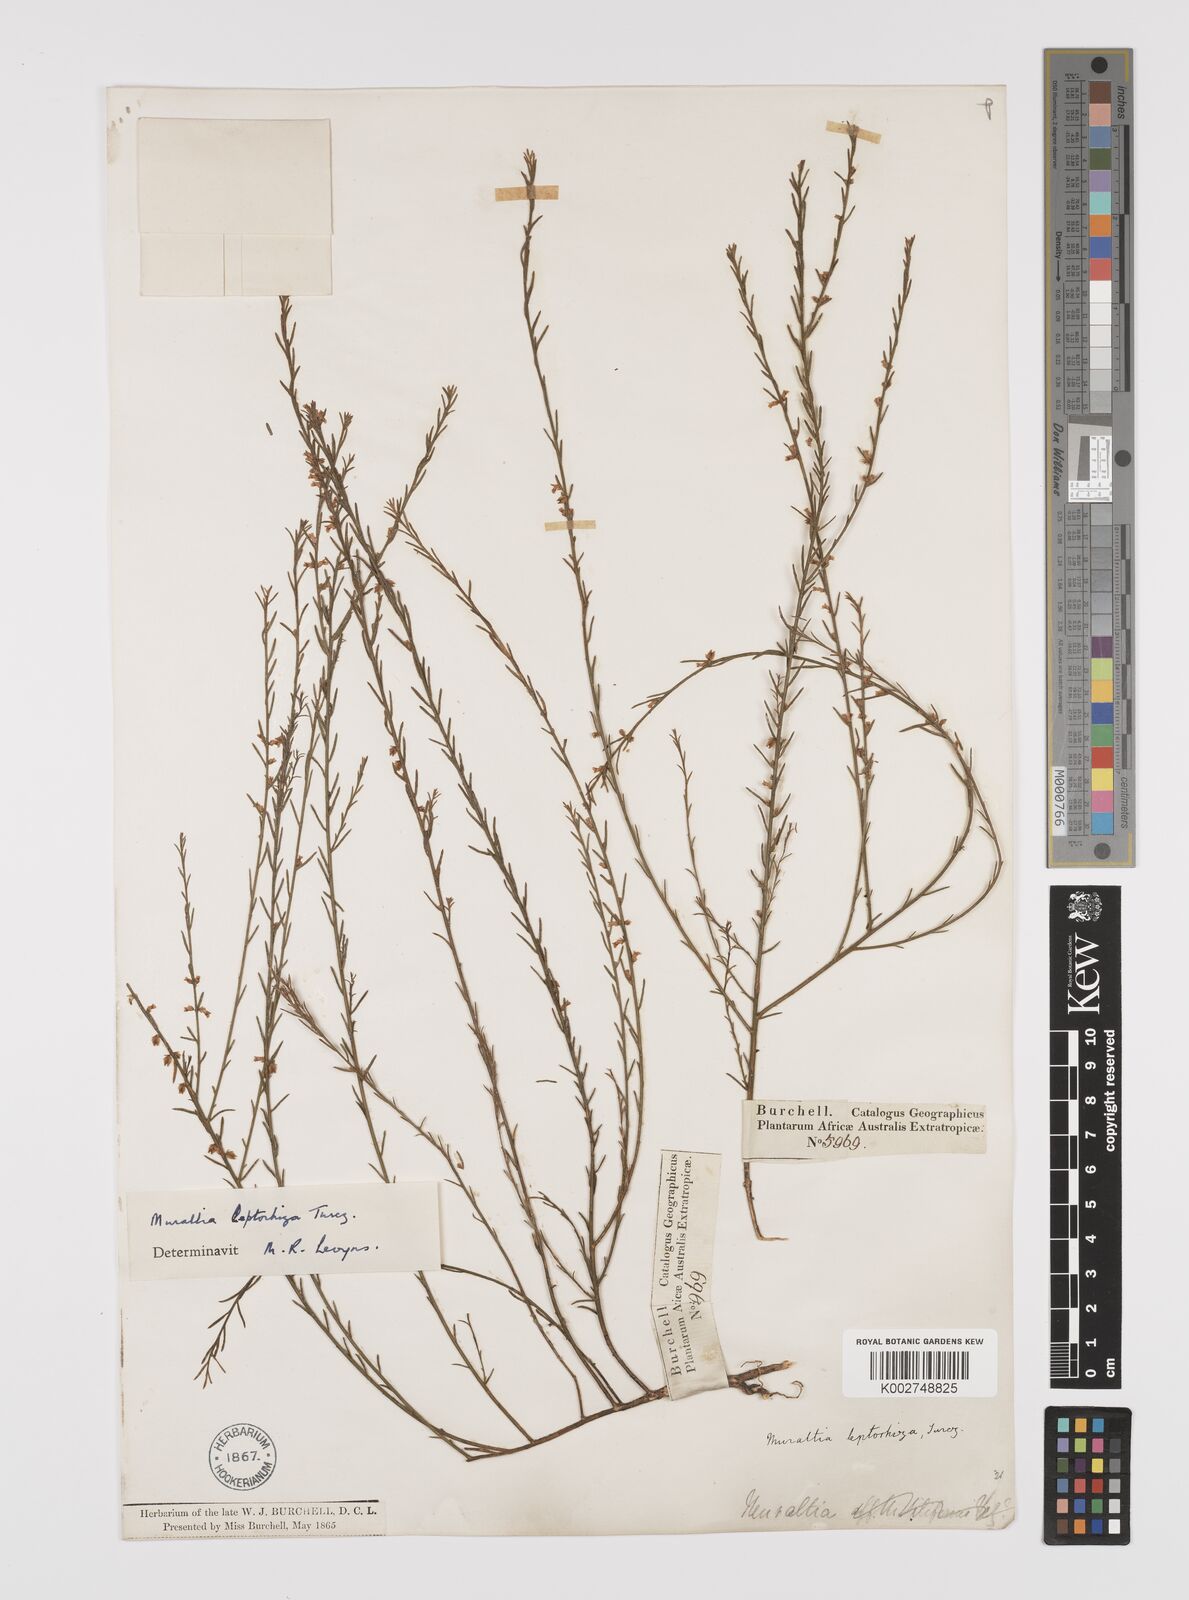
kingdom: Plantae
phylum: Tracheophyta
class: Magnoliopsida
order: Fabales
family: Polygalaceae
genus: Muraltia
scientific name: Muraltia leptorhiza
